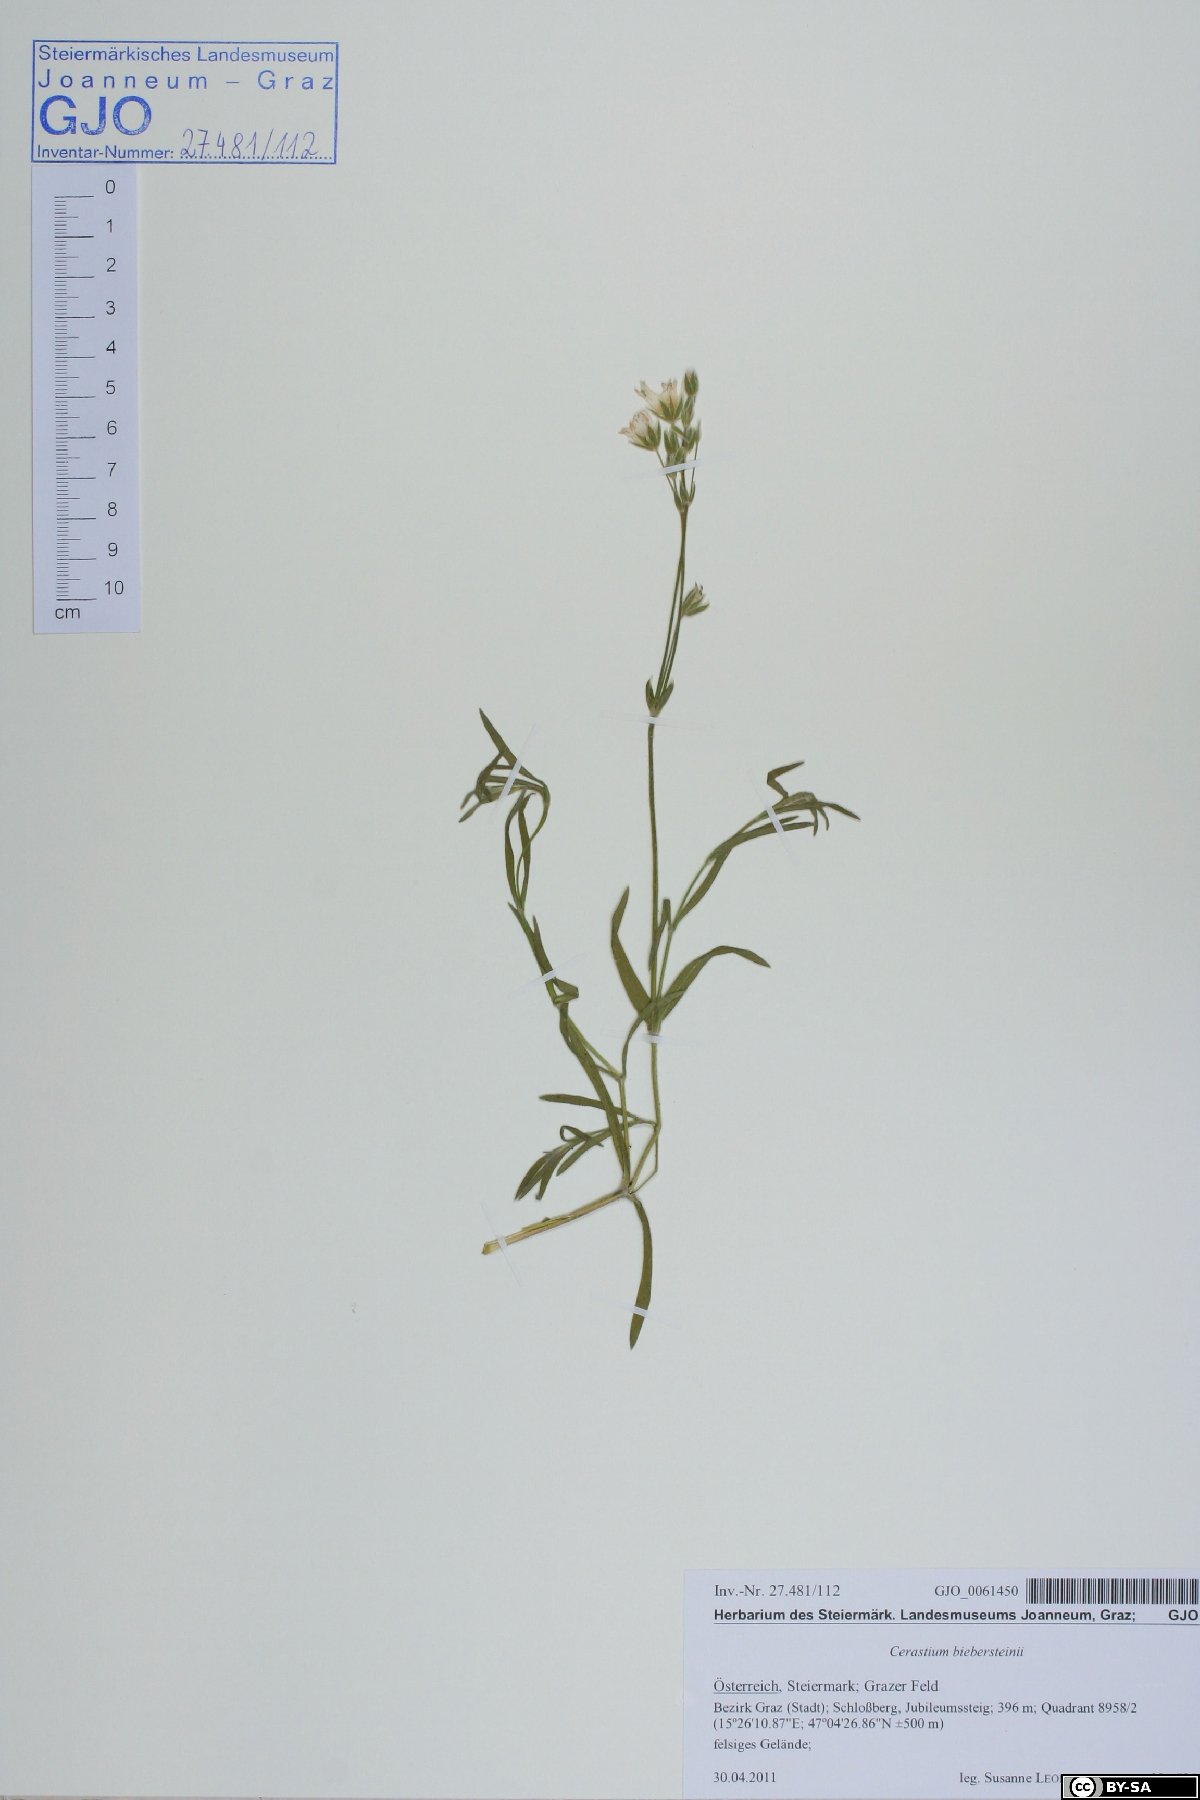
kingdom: Plantae
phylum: Tracheophyta
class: Magnoliopsida
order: Caryophyllales
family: Caryophyllaceae
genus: Cerastium
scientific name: Cerastium biebersteinii
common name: Snow-in-summer
